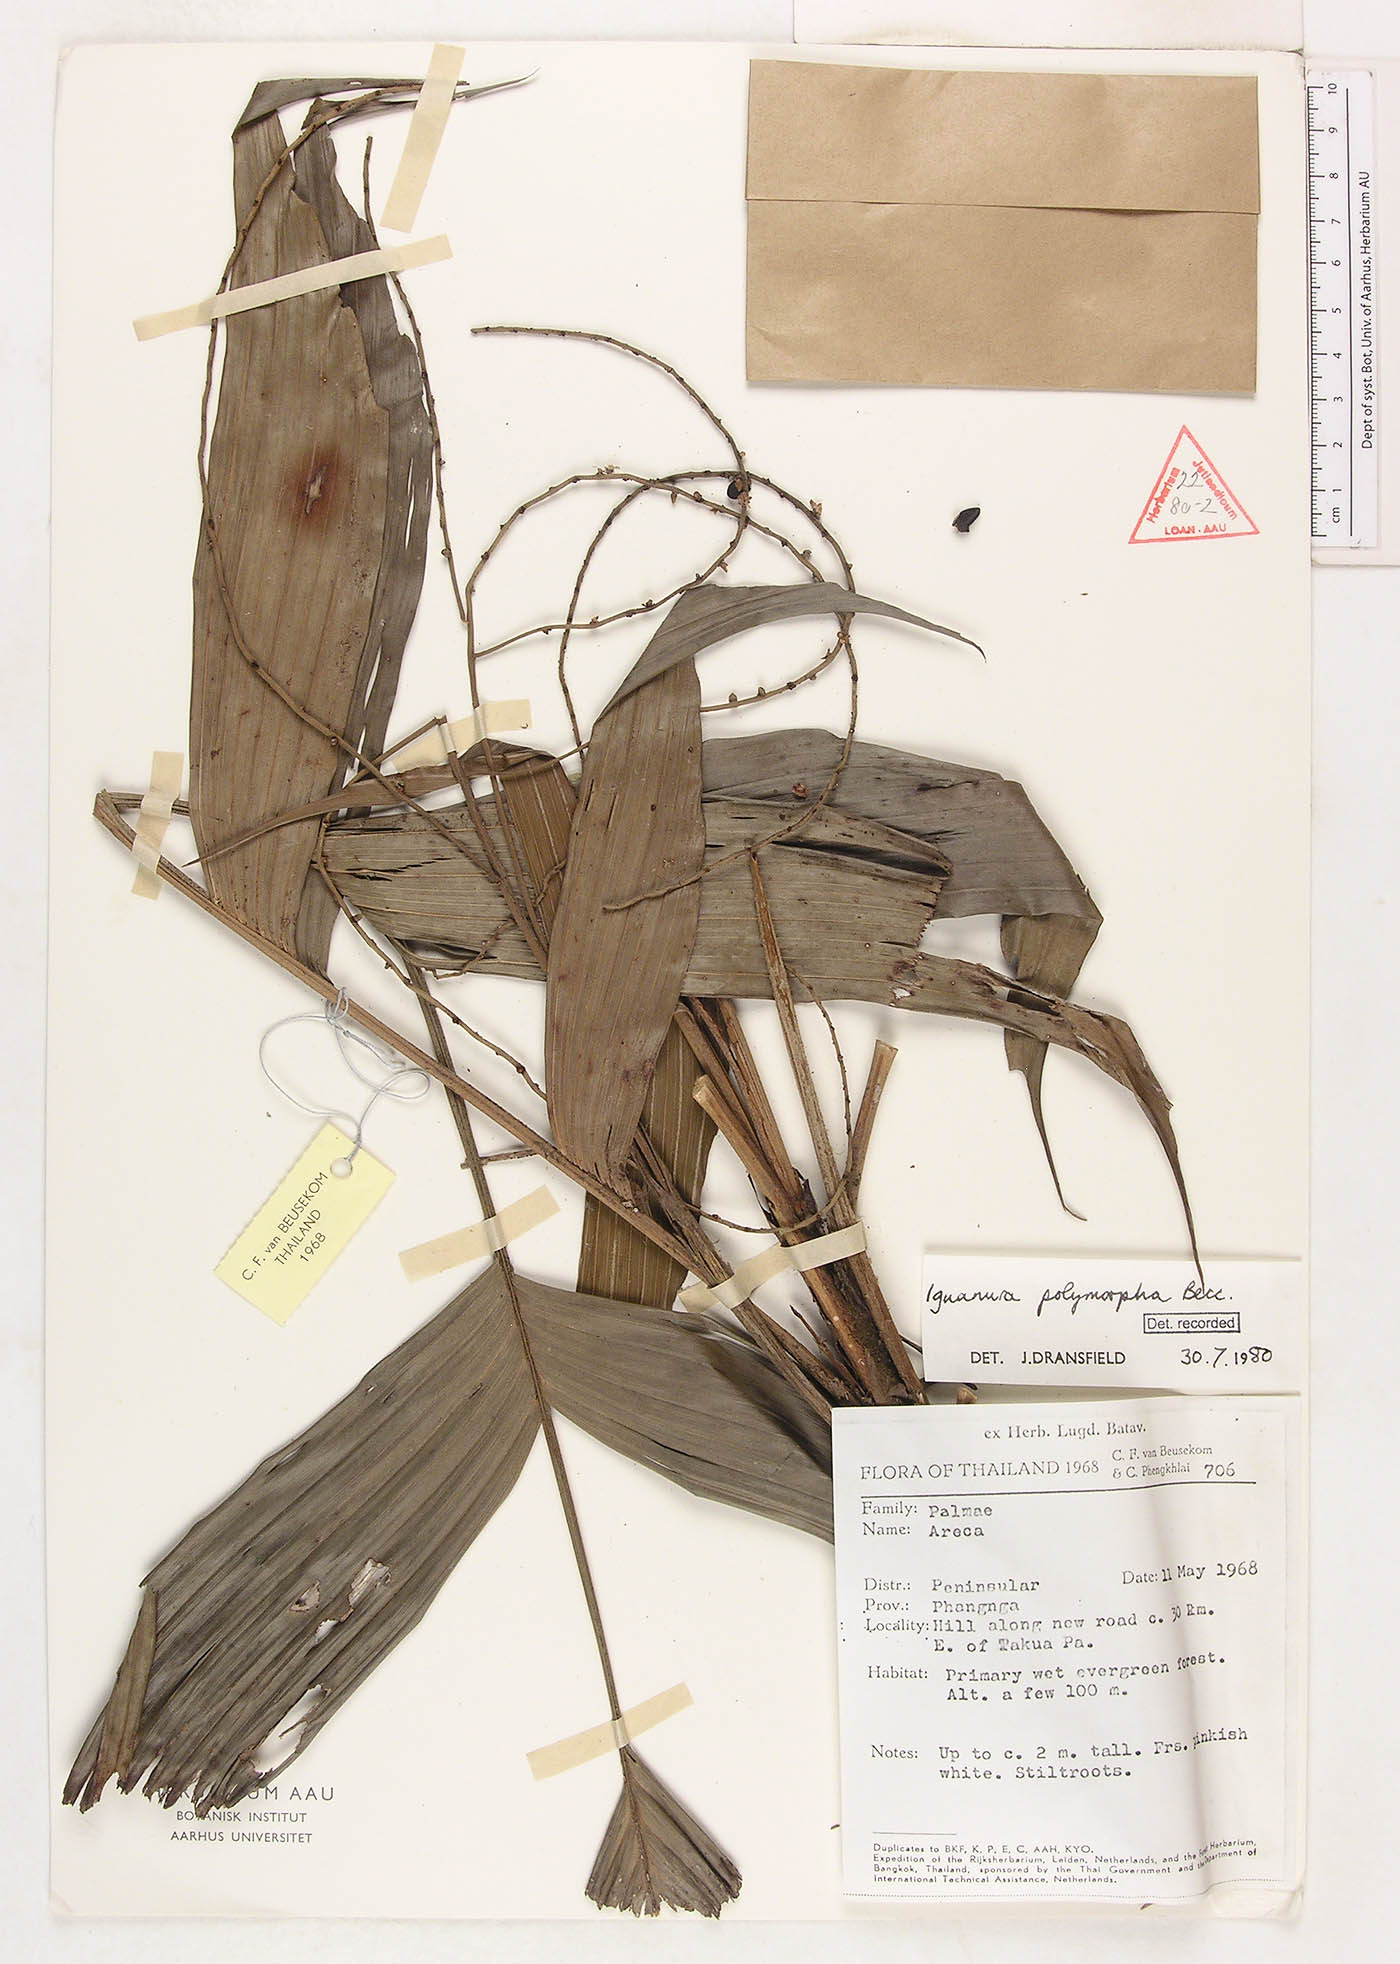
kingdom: Plantae
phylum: Tracheophyta
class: Liliopsida
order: Arecales
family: Arecaceae
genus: Iguanura
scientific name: Iguanura polymorpha
